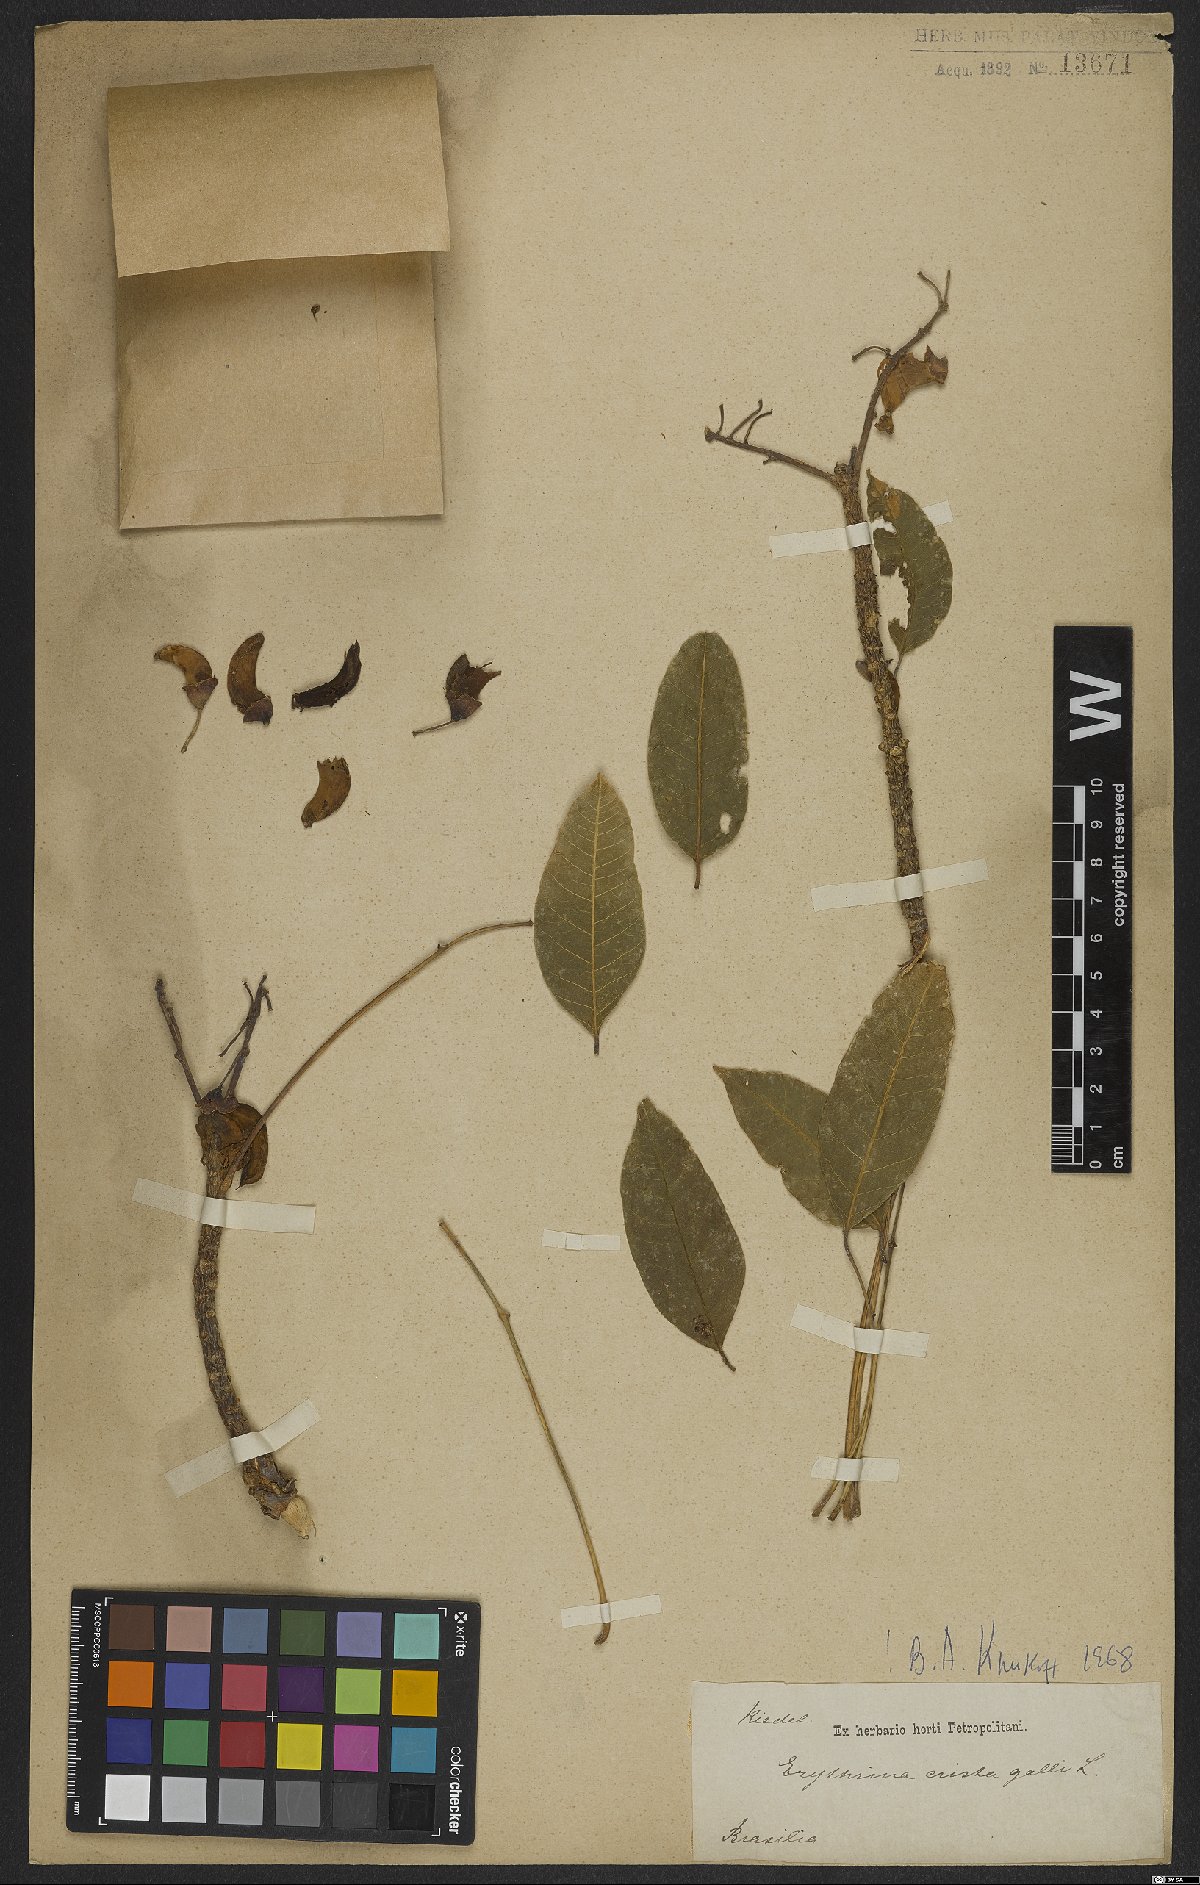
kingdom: Plantae
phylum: Tracheophyta
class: Magnoliopsida
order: Fabales
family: Fabaceae
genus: Erythrina
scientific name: Erythrina crista-galli
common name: Cockspur coral tree
